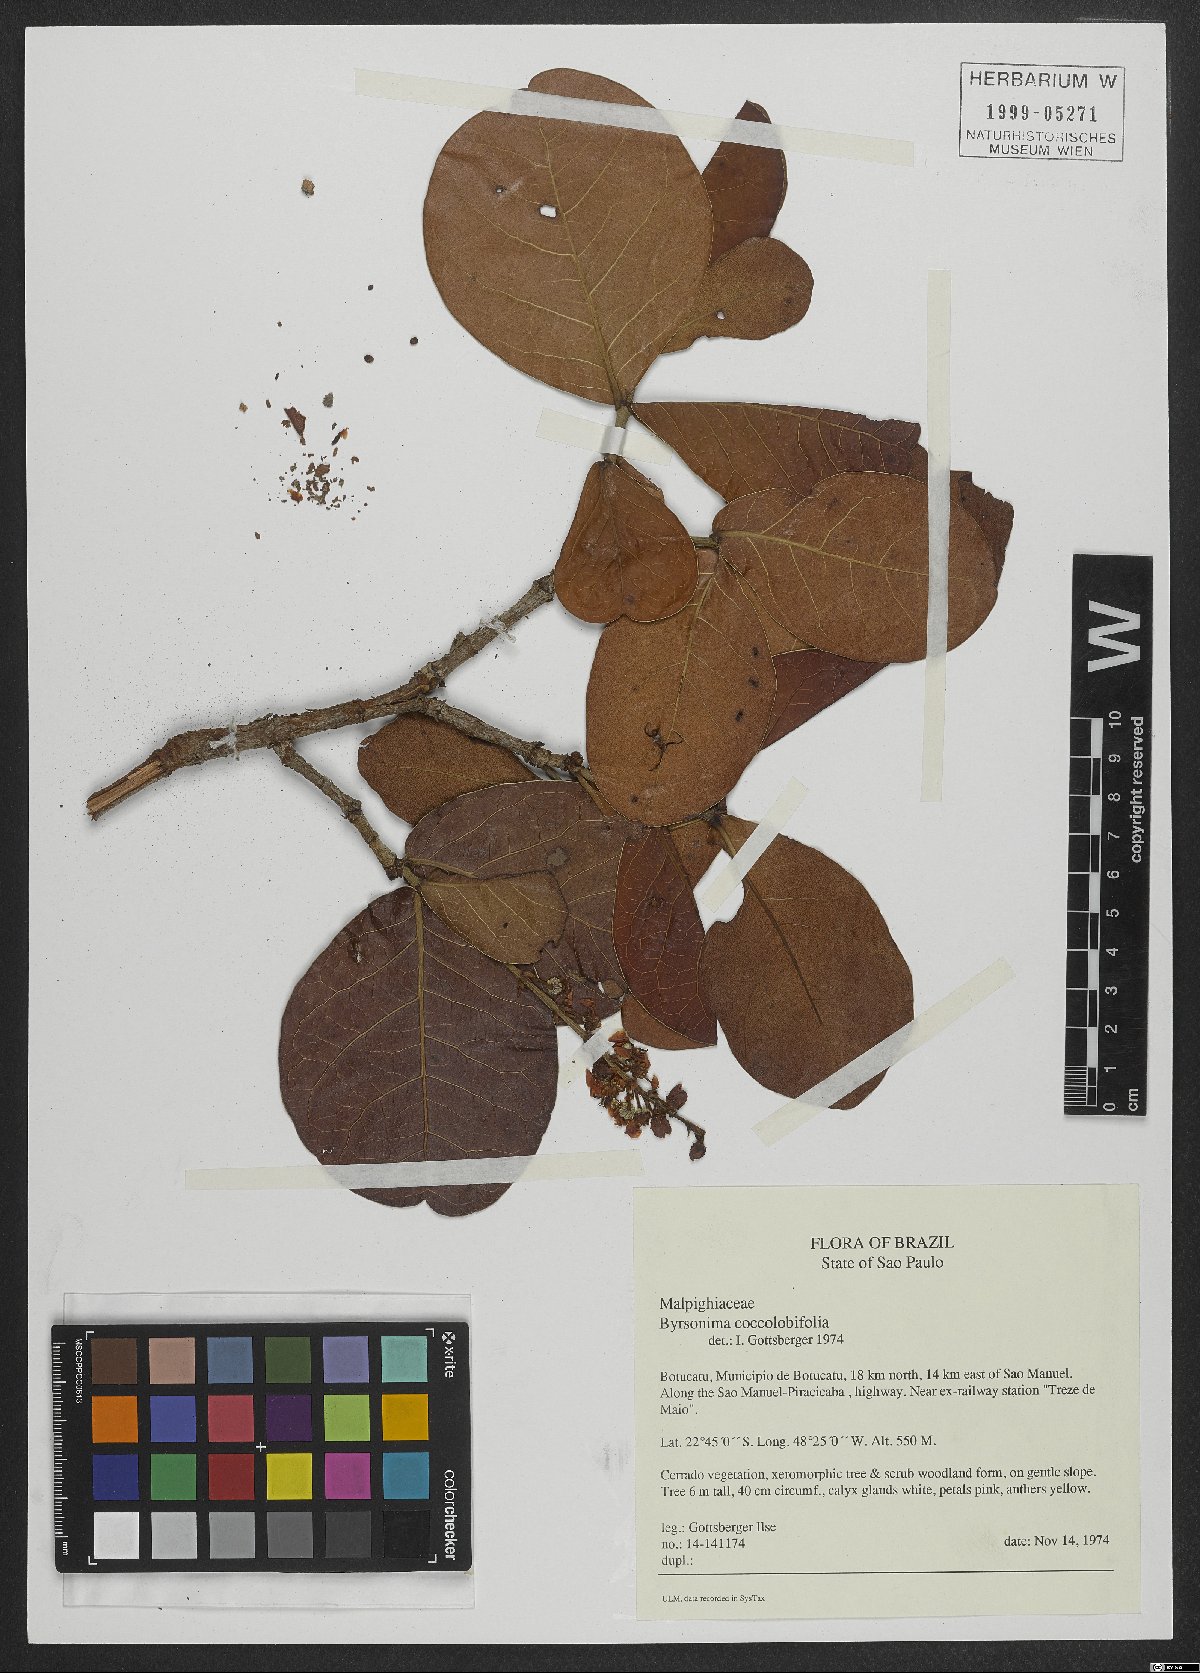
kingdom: Plantae
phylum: Tracheophyta
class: Magnoliopsida
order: Malpighiales
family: Malpighiaceae
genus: Byrsonima
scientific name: Byrsonima coccolobifolia
